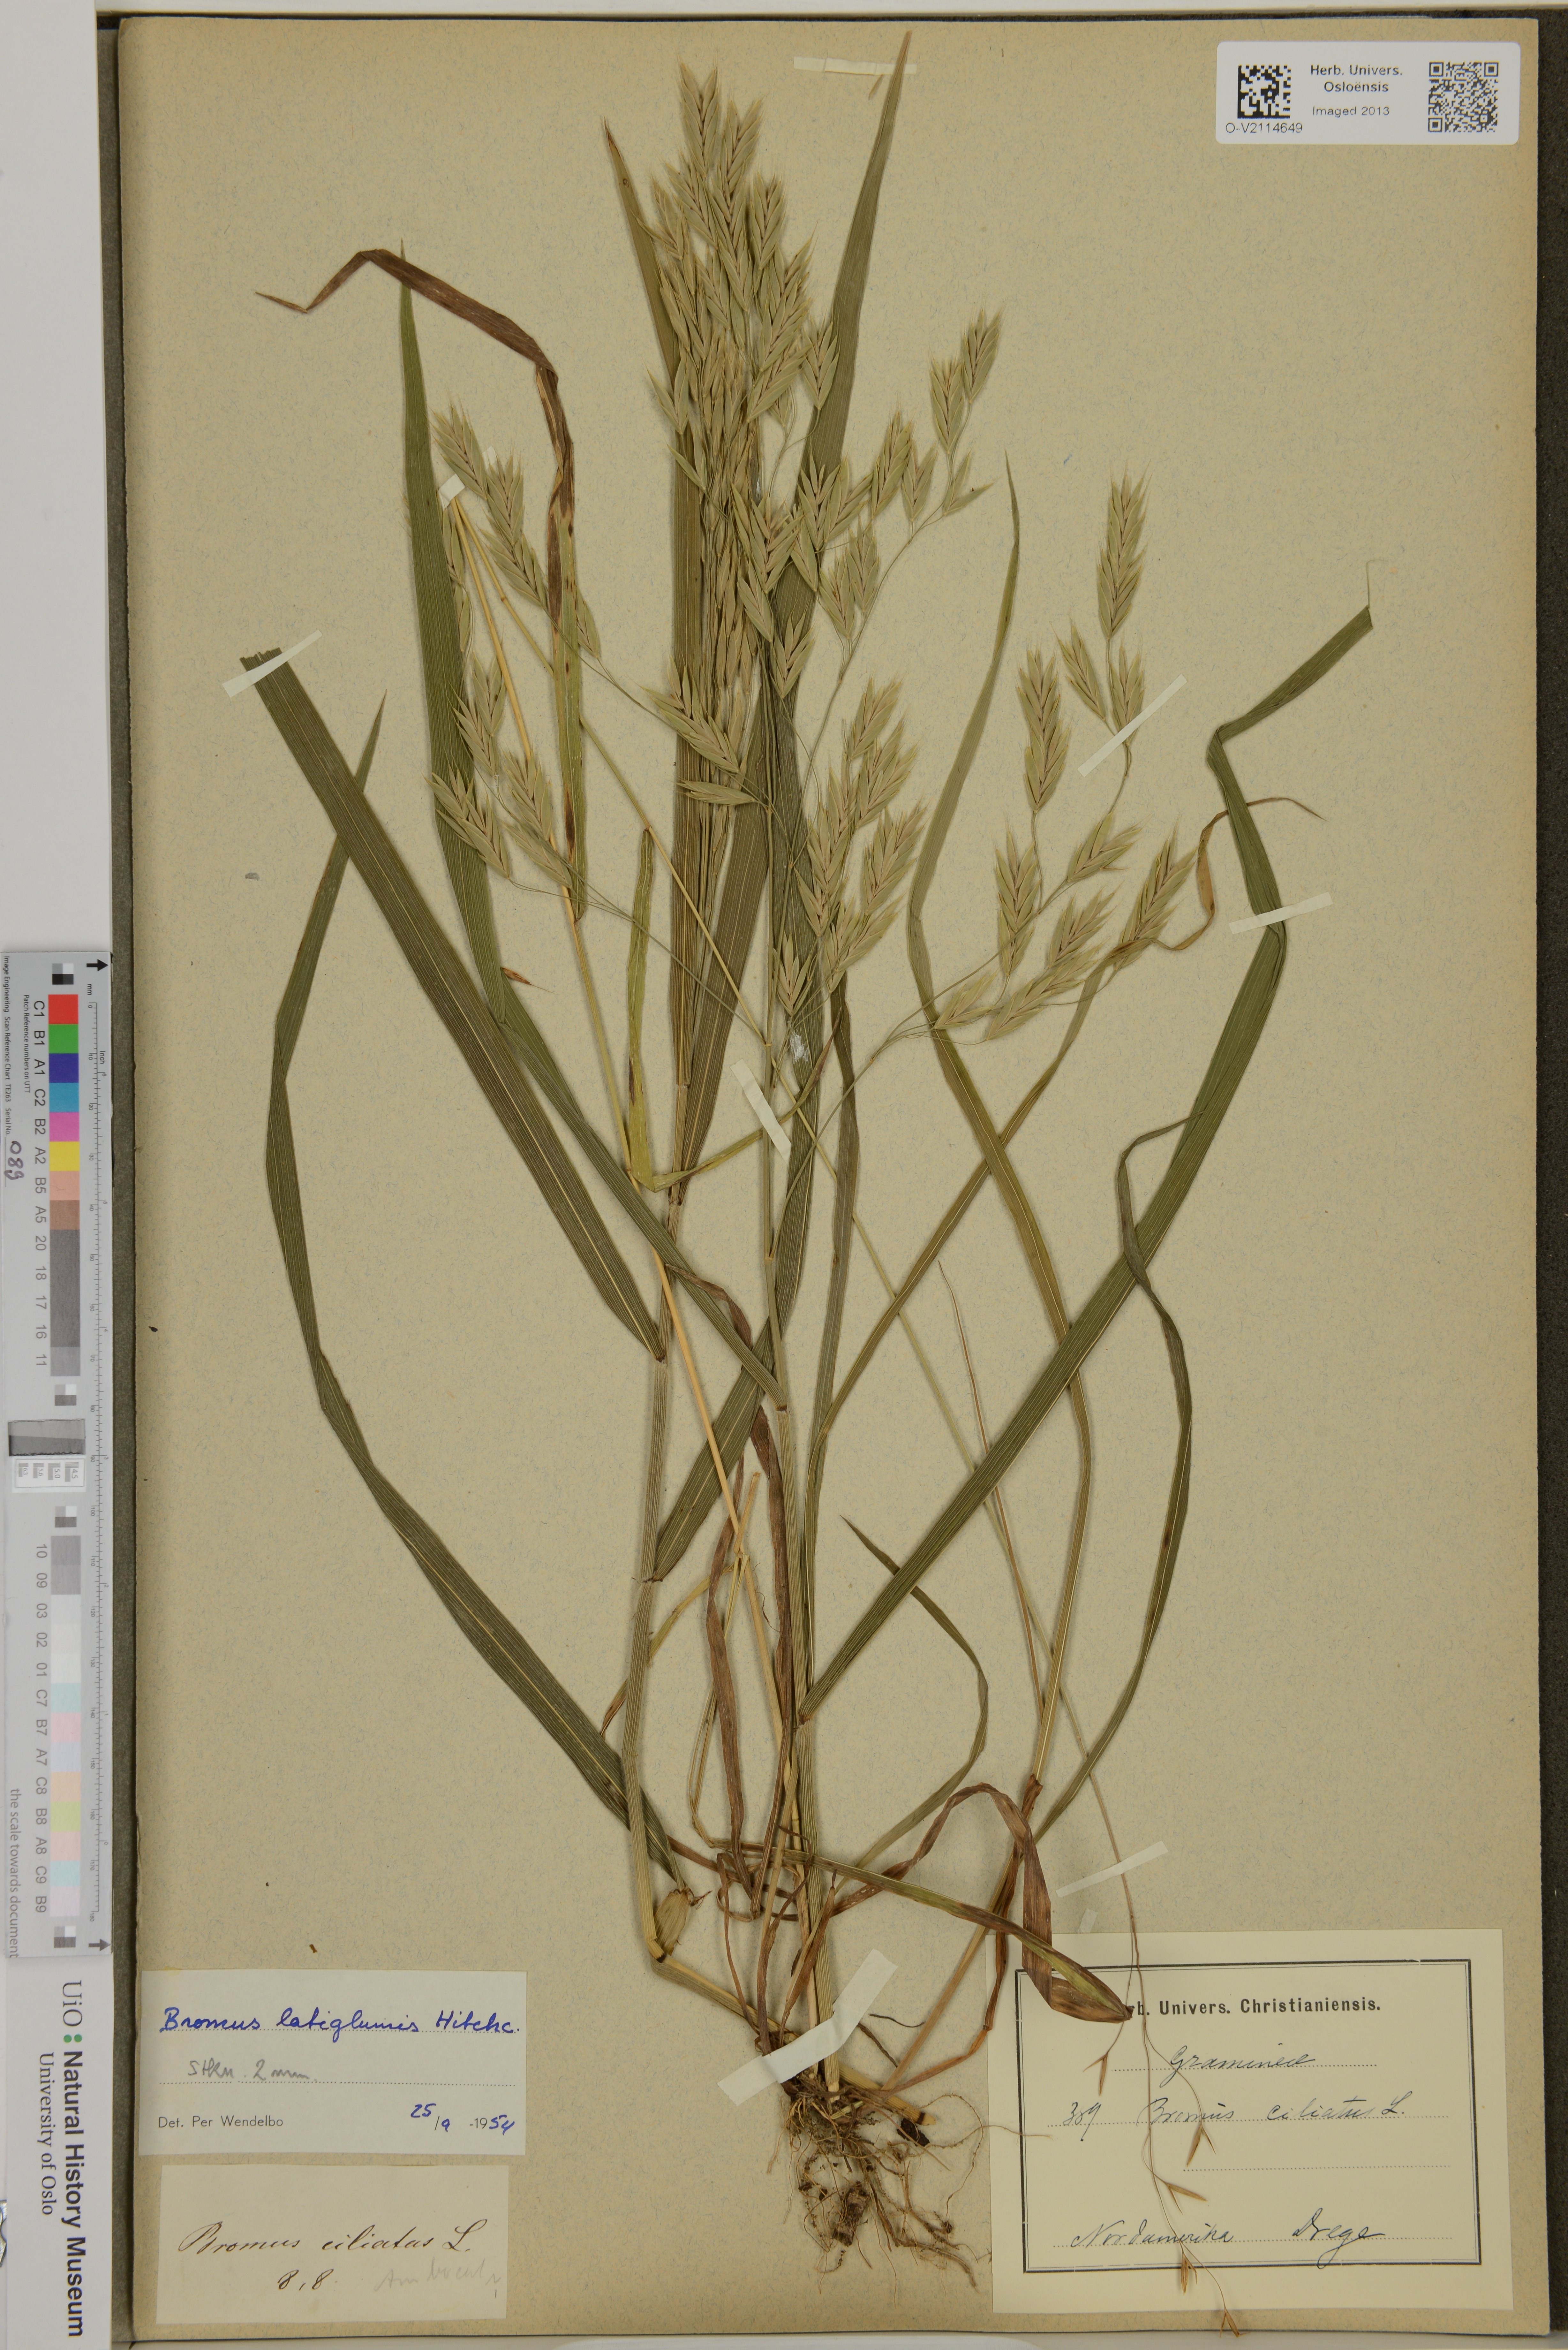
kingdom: Plantae
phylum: Tracheophyta
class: Liliopsida
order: Poales
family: Poaceae
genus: Bromus
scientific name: Bromus latiglumis
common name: Broad-glumed brome
